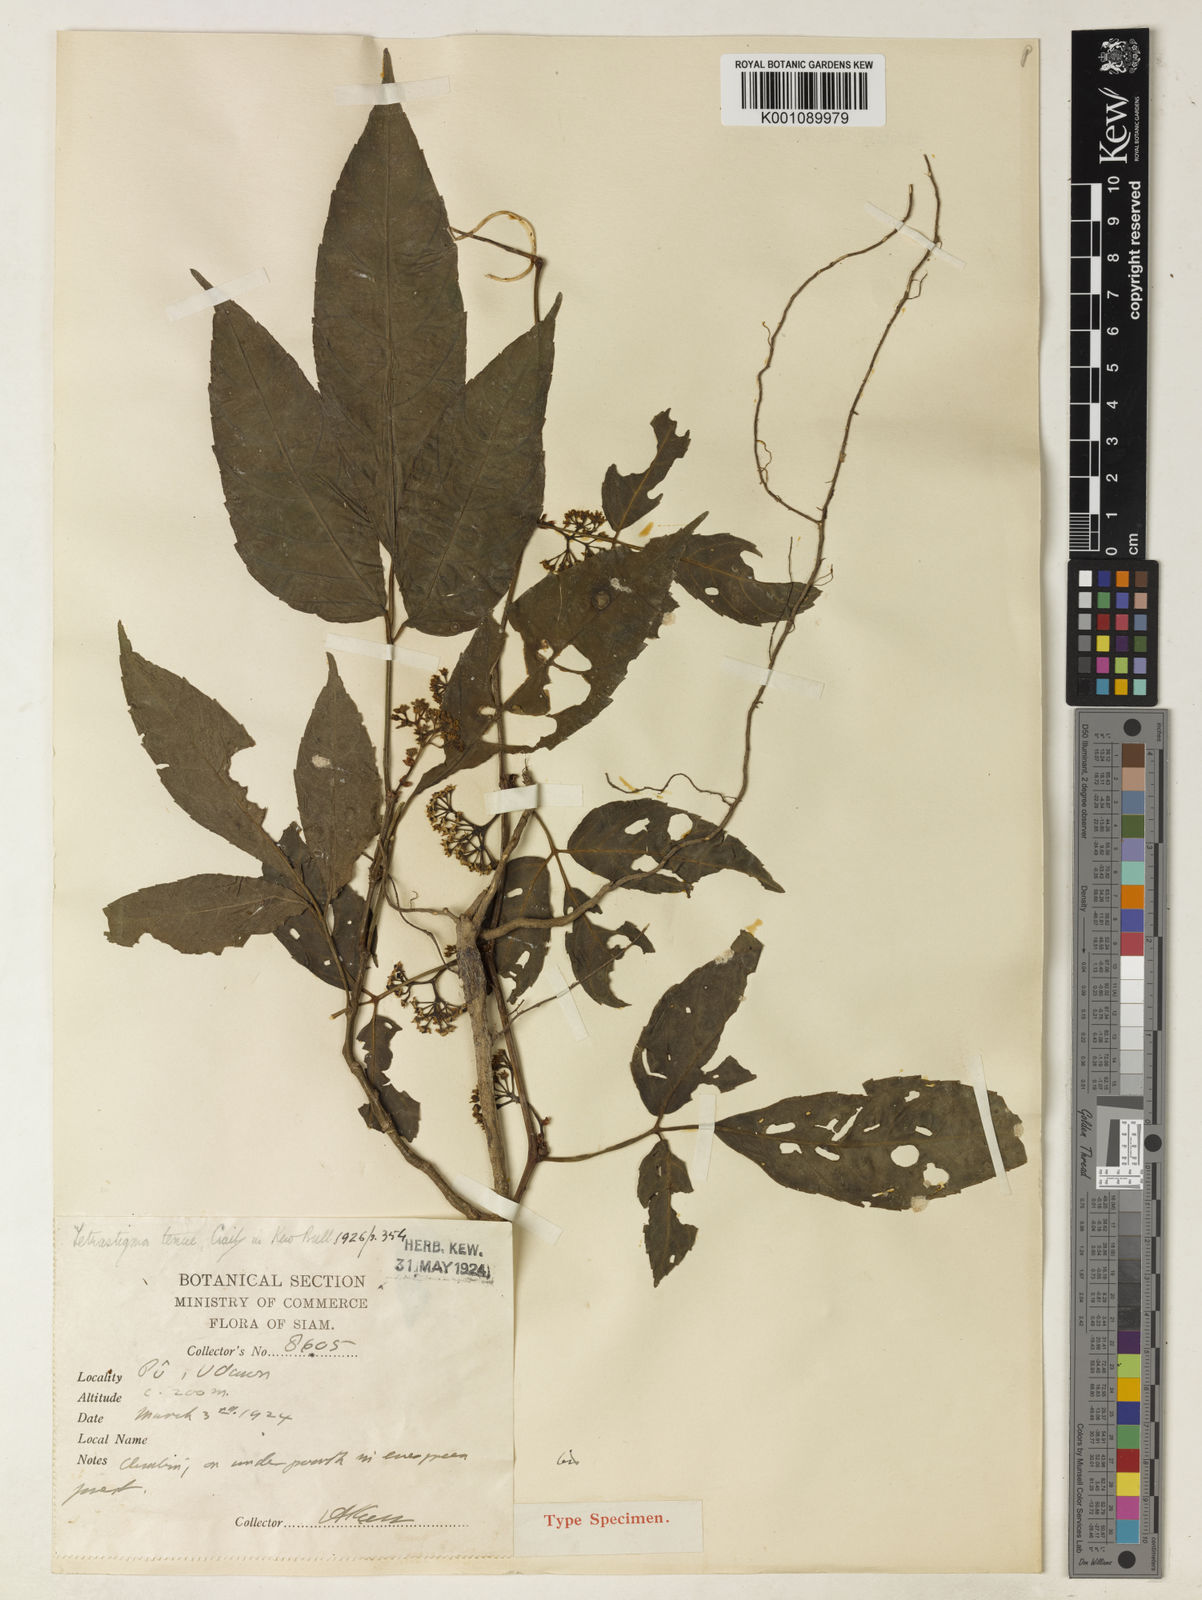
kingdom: Plantae
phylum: Tracheophyta
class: Magnoliopsida
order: Vitales
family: Vitaceae
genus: Tetrastigma
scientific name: Tetrastigma dubium
